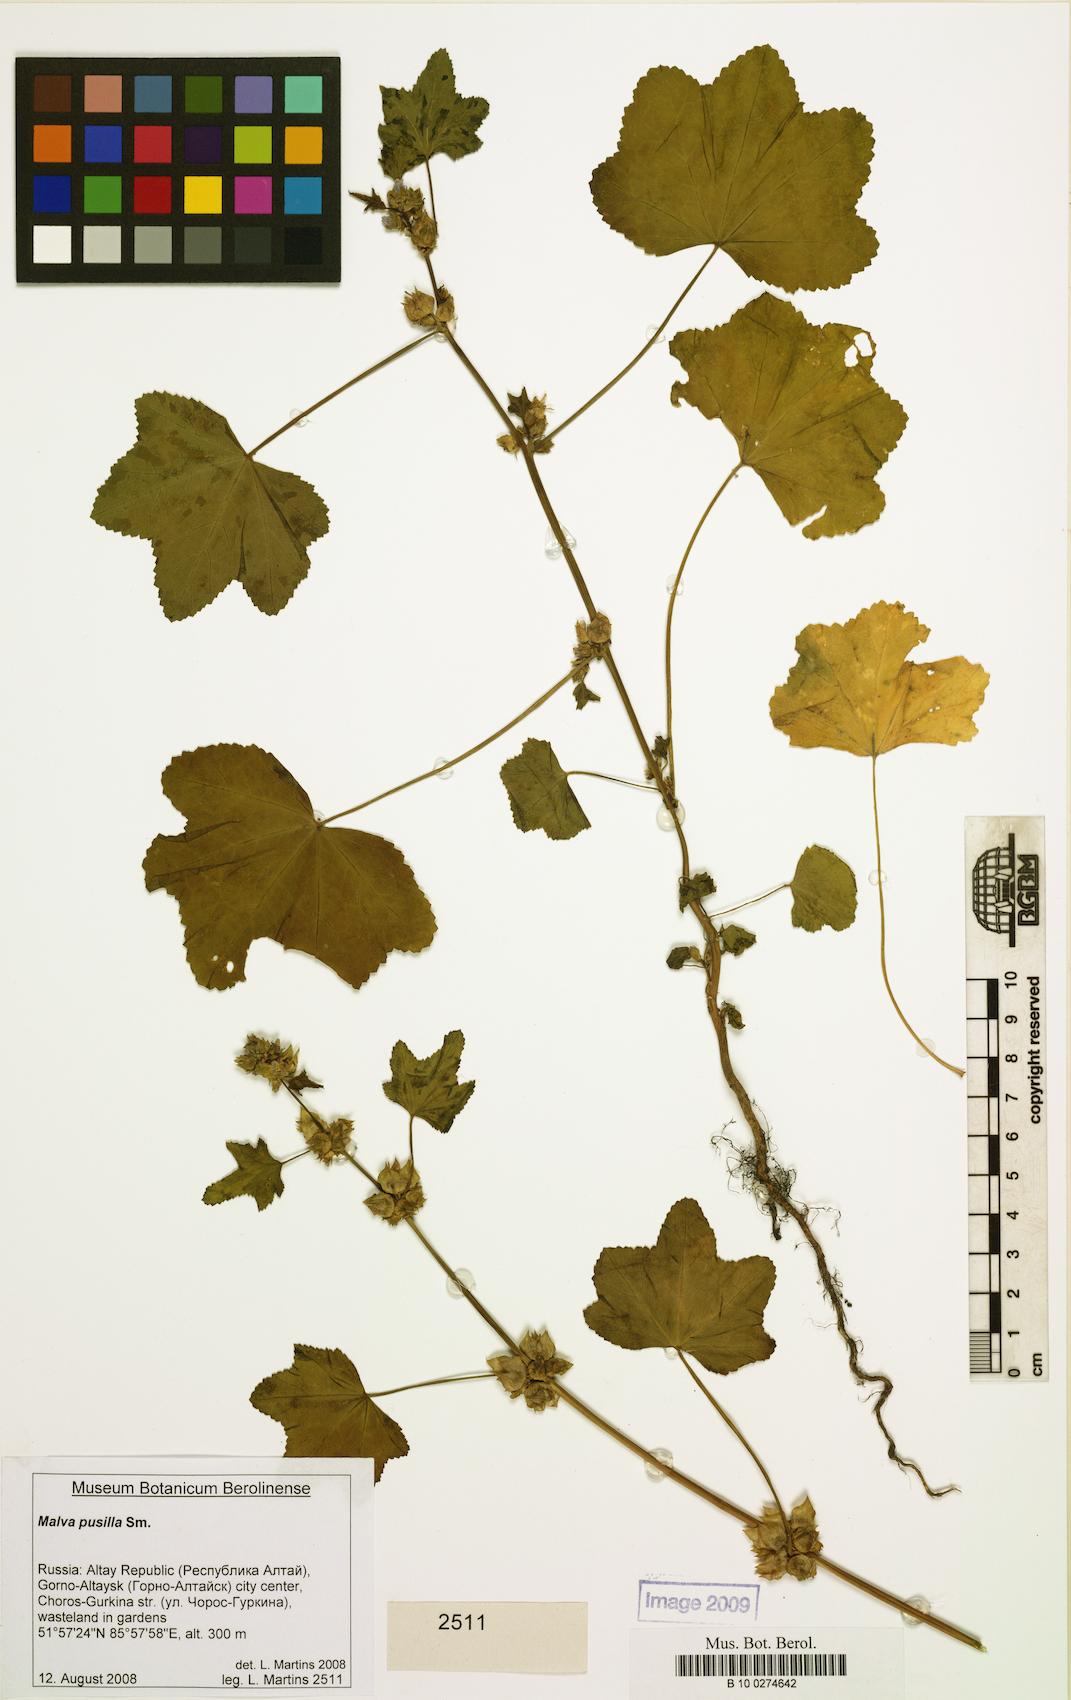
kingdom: Plantae
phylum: Tracheophyta
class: Magnoliopsida
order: Malvales
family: Malvaceae
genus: Malva
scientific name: Malva pusilla
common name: Small mallow
